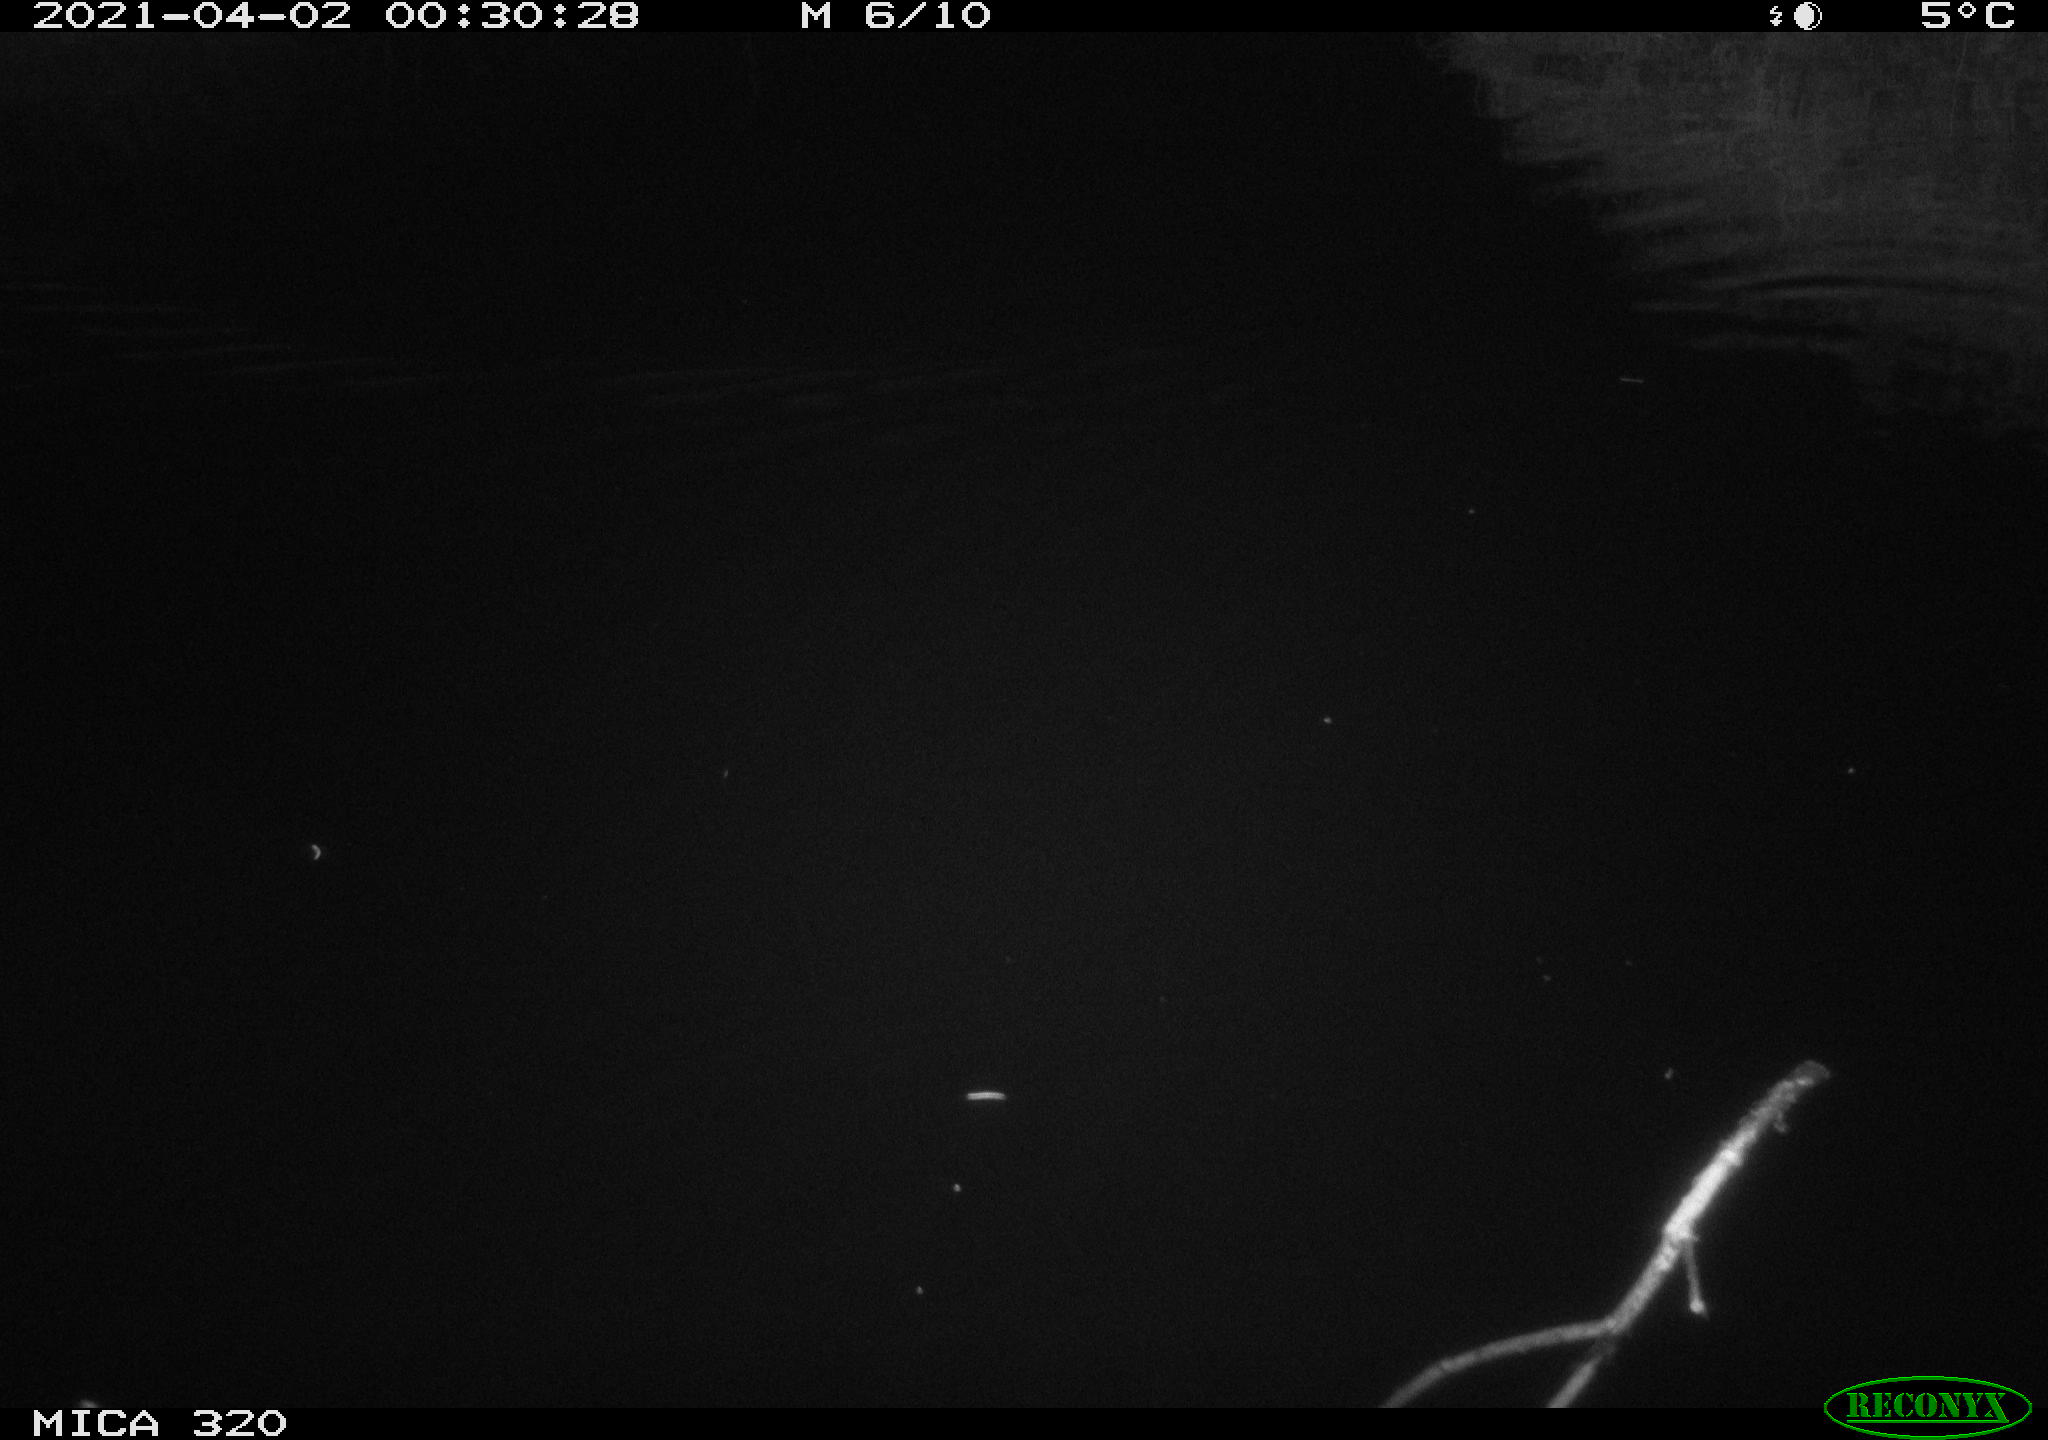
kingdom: Animalia
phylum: Chordata
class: Aves
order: Anseriformes
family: Anatidae
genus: Anas
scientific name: Anas platyrhynchos
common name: Mallard
